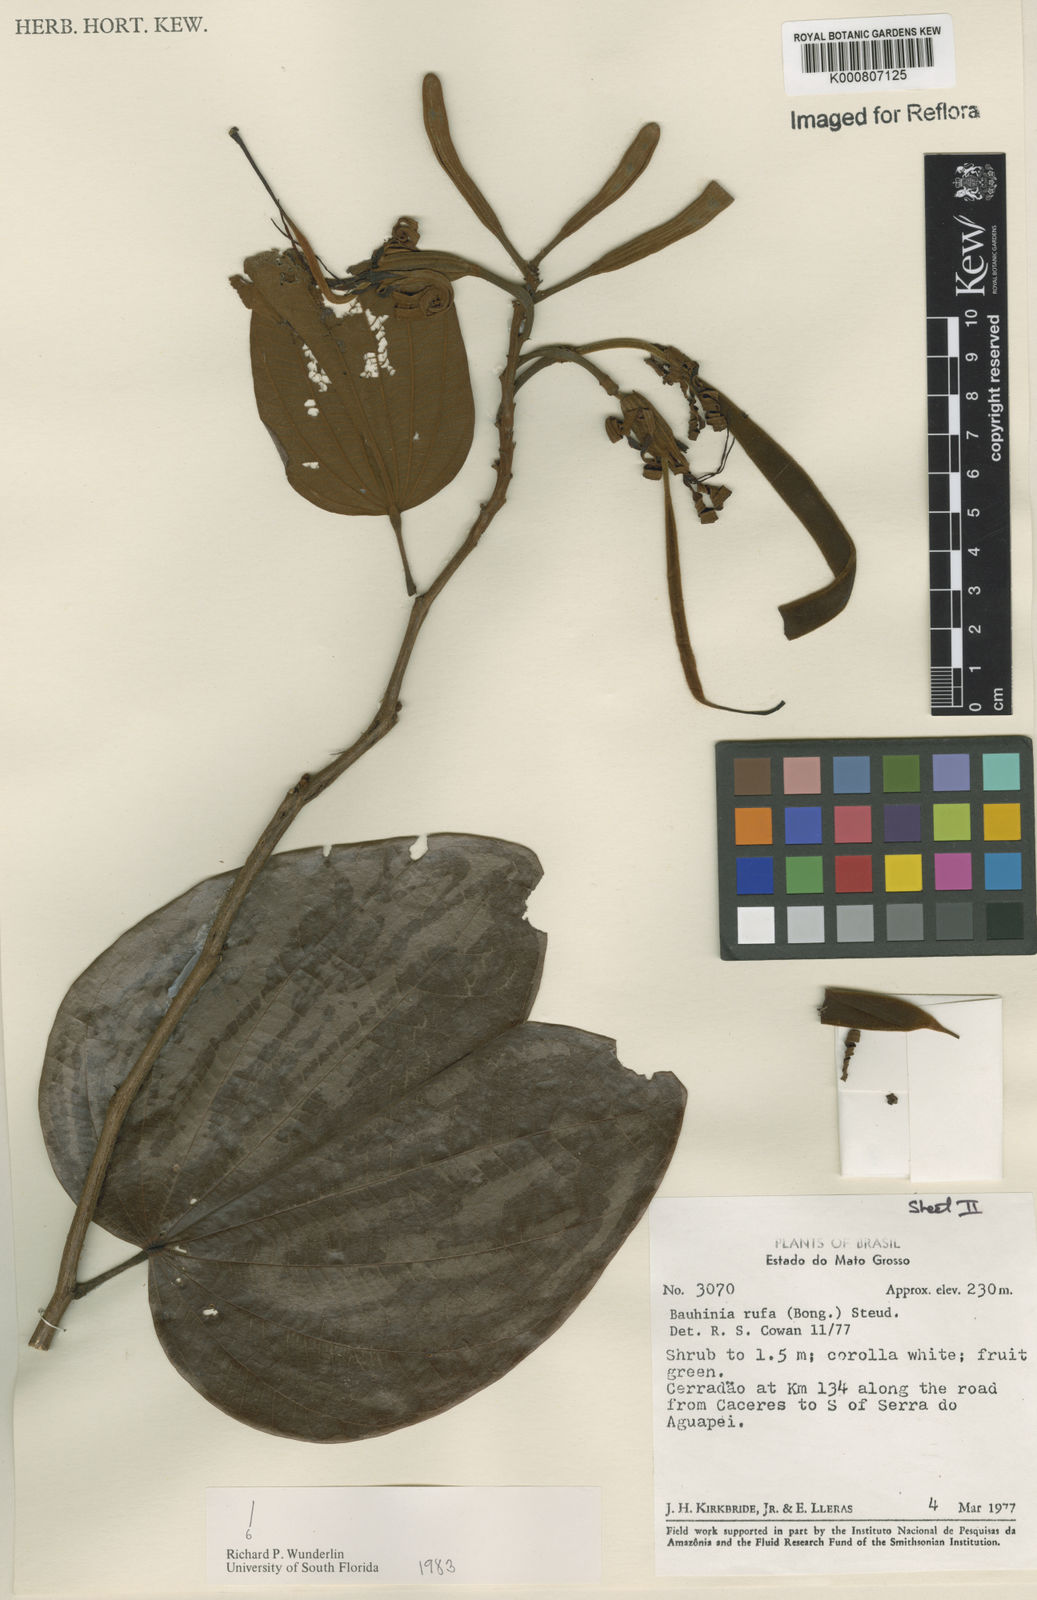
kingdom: Plantae
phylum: Tracheophyta
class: Magnoliopsida
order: Fabales
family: Fabaceae
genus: Bauhinia
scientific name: Bauhinia rufa
